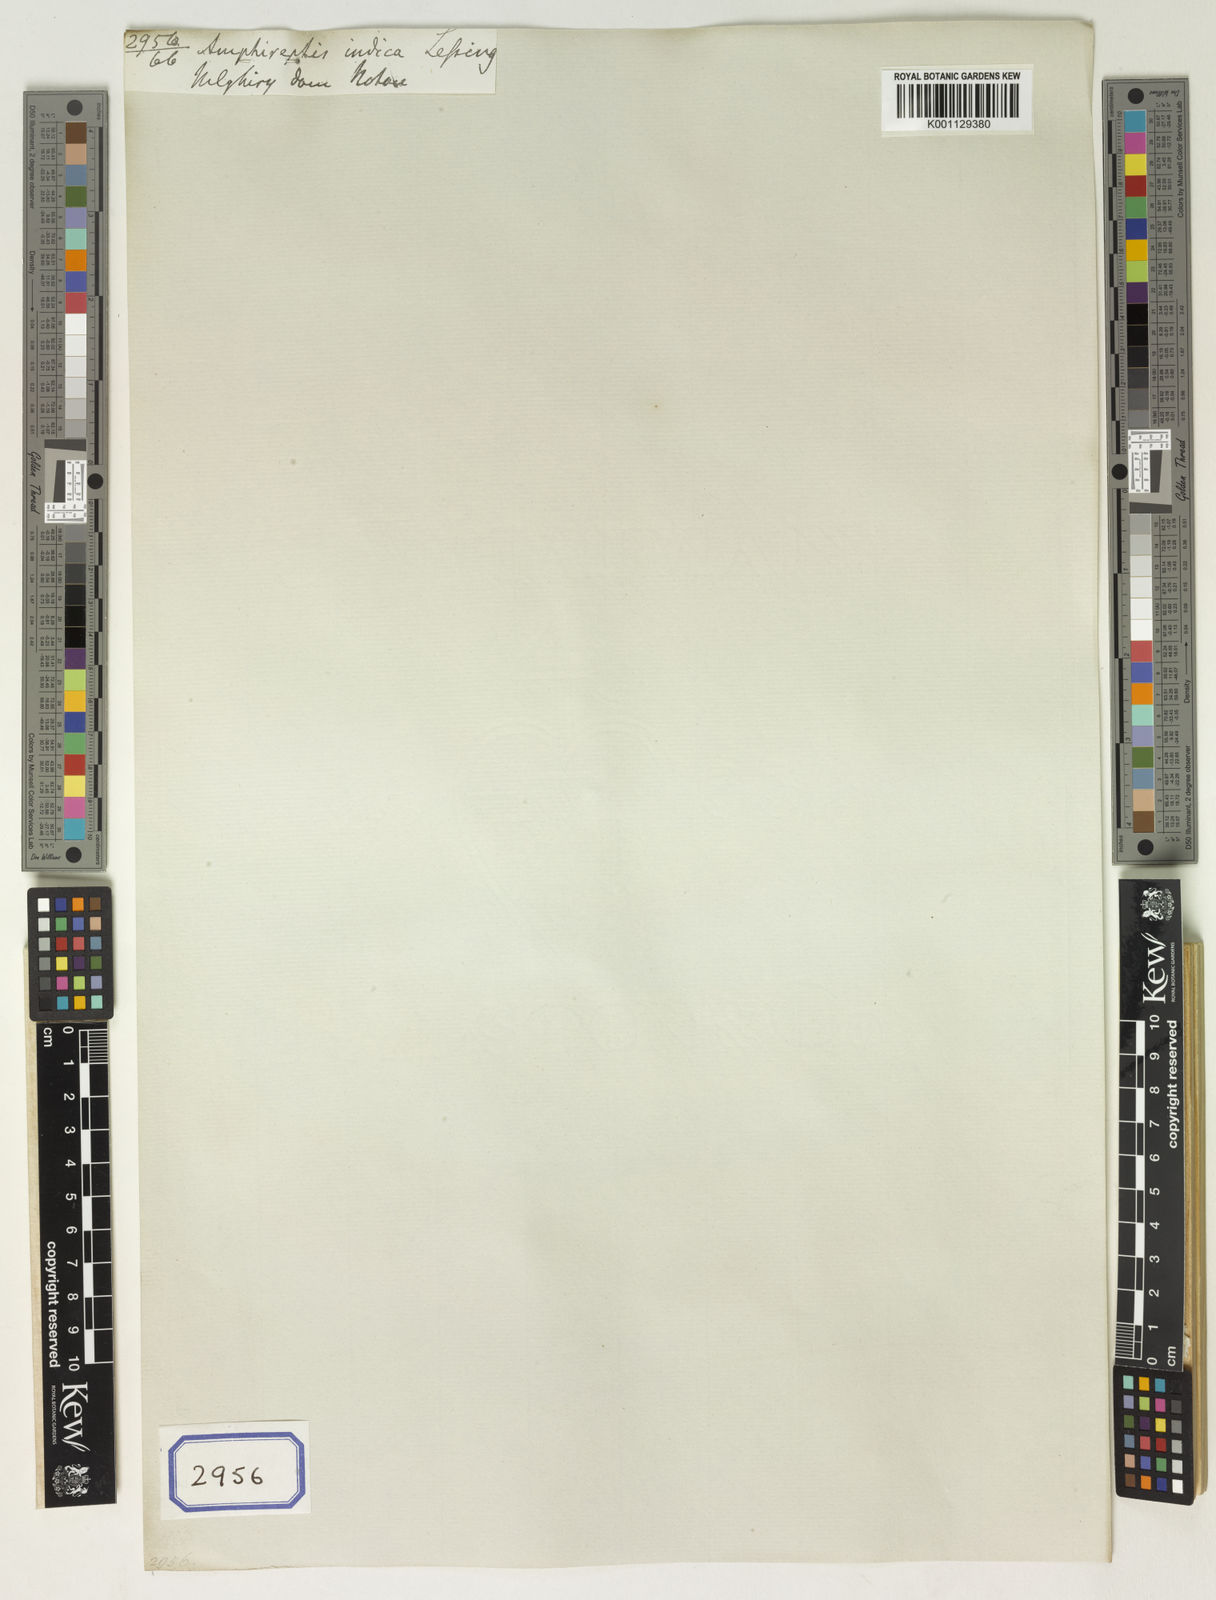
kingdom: Plantae
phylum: Tracheophyta
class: Magnoliopsida
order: Asterales
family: Asteraceae
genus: Phyllocephalum
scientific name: Phyllocephalum indicum
